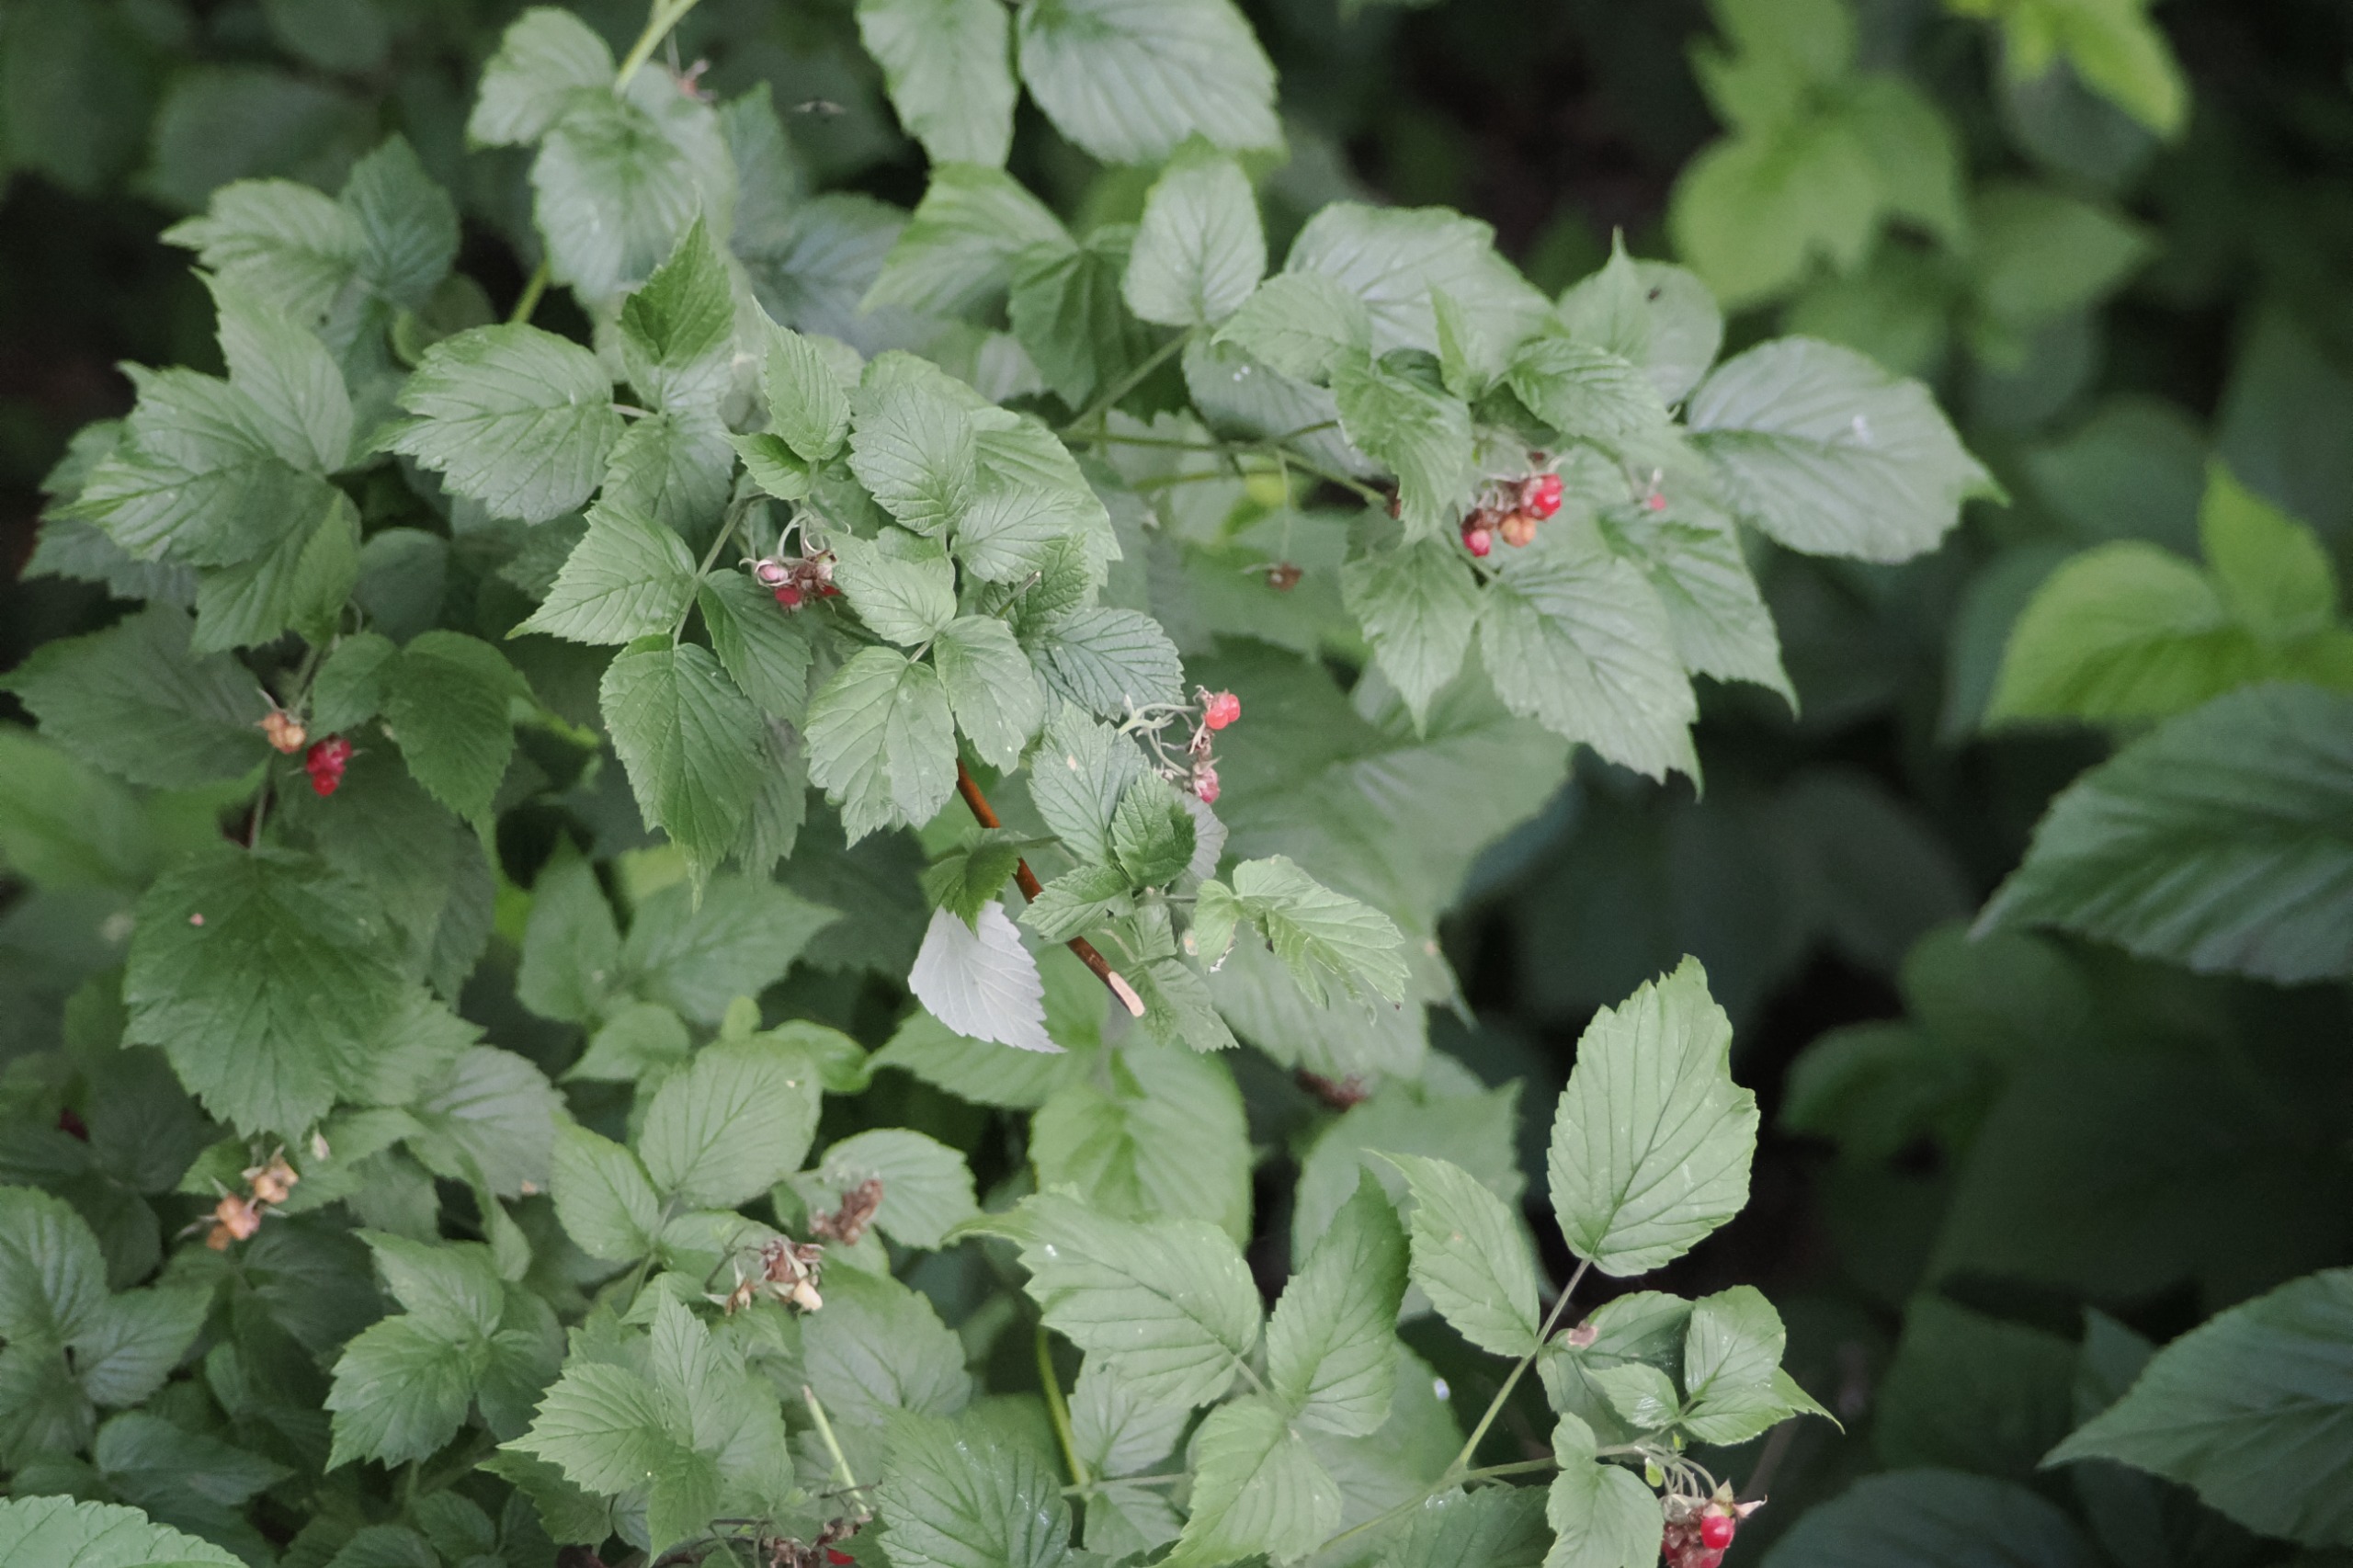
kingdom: Plantae
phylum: Tracheophyta
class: Magnoliopsida
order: Rosales
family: Rosaceae
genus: Rubus
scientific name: Rubus idaeus
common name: Hindbær
